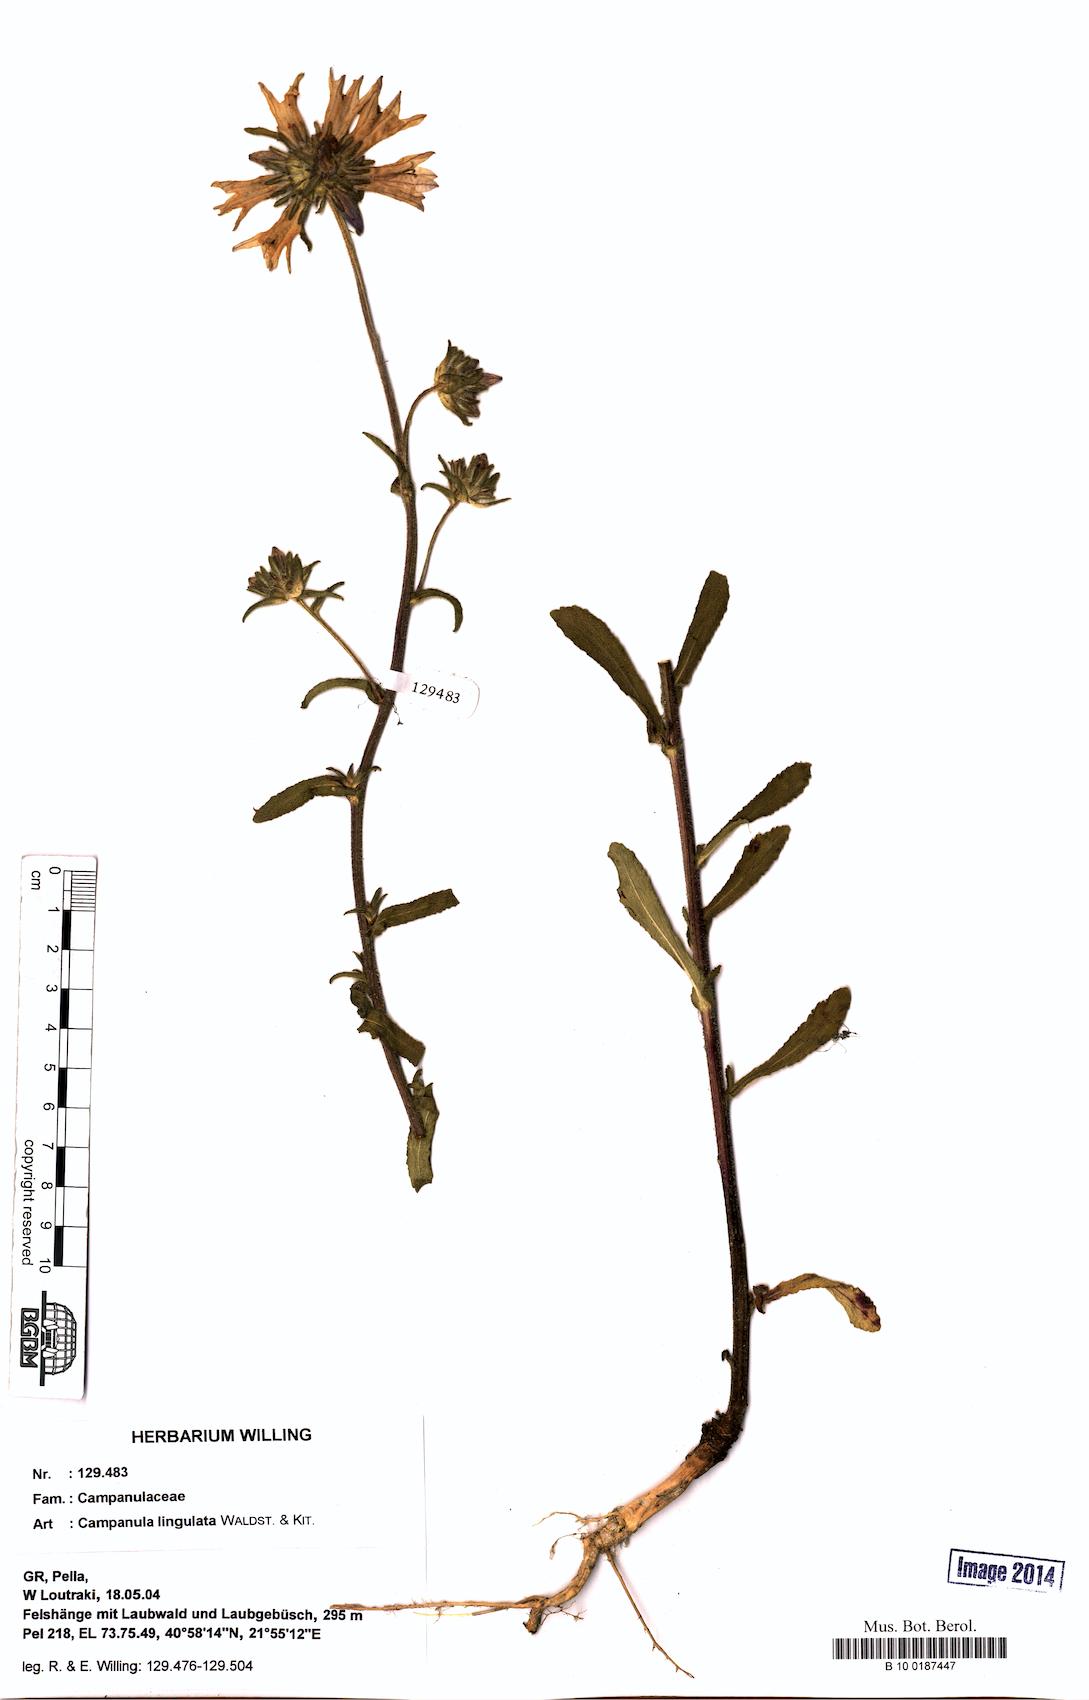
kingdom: Plantae
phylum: Tracheophyta
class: Magnoliopsida
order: Asterales
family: Campanulaceae
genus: Campanula
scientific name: Campanula lingulata
